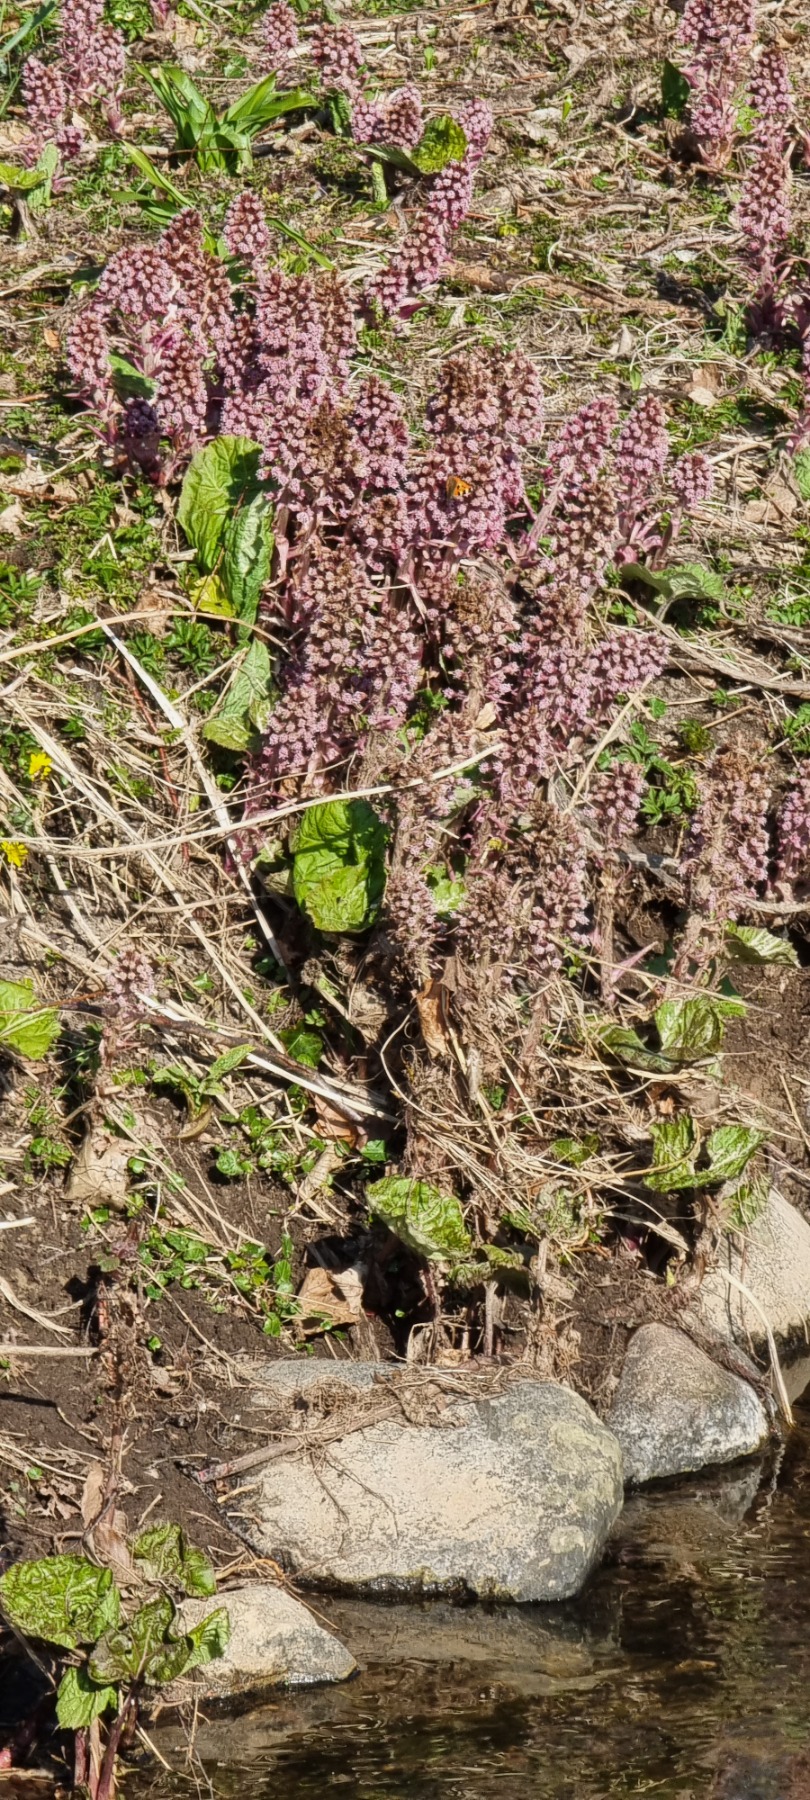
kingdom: Plantae
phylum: Tracheophyta
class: Magnoliopsida
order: Asterales
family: Asteraceae
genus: Petasites
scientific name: Petasites hybridus
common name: Rød hestehov
